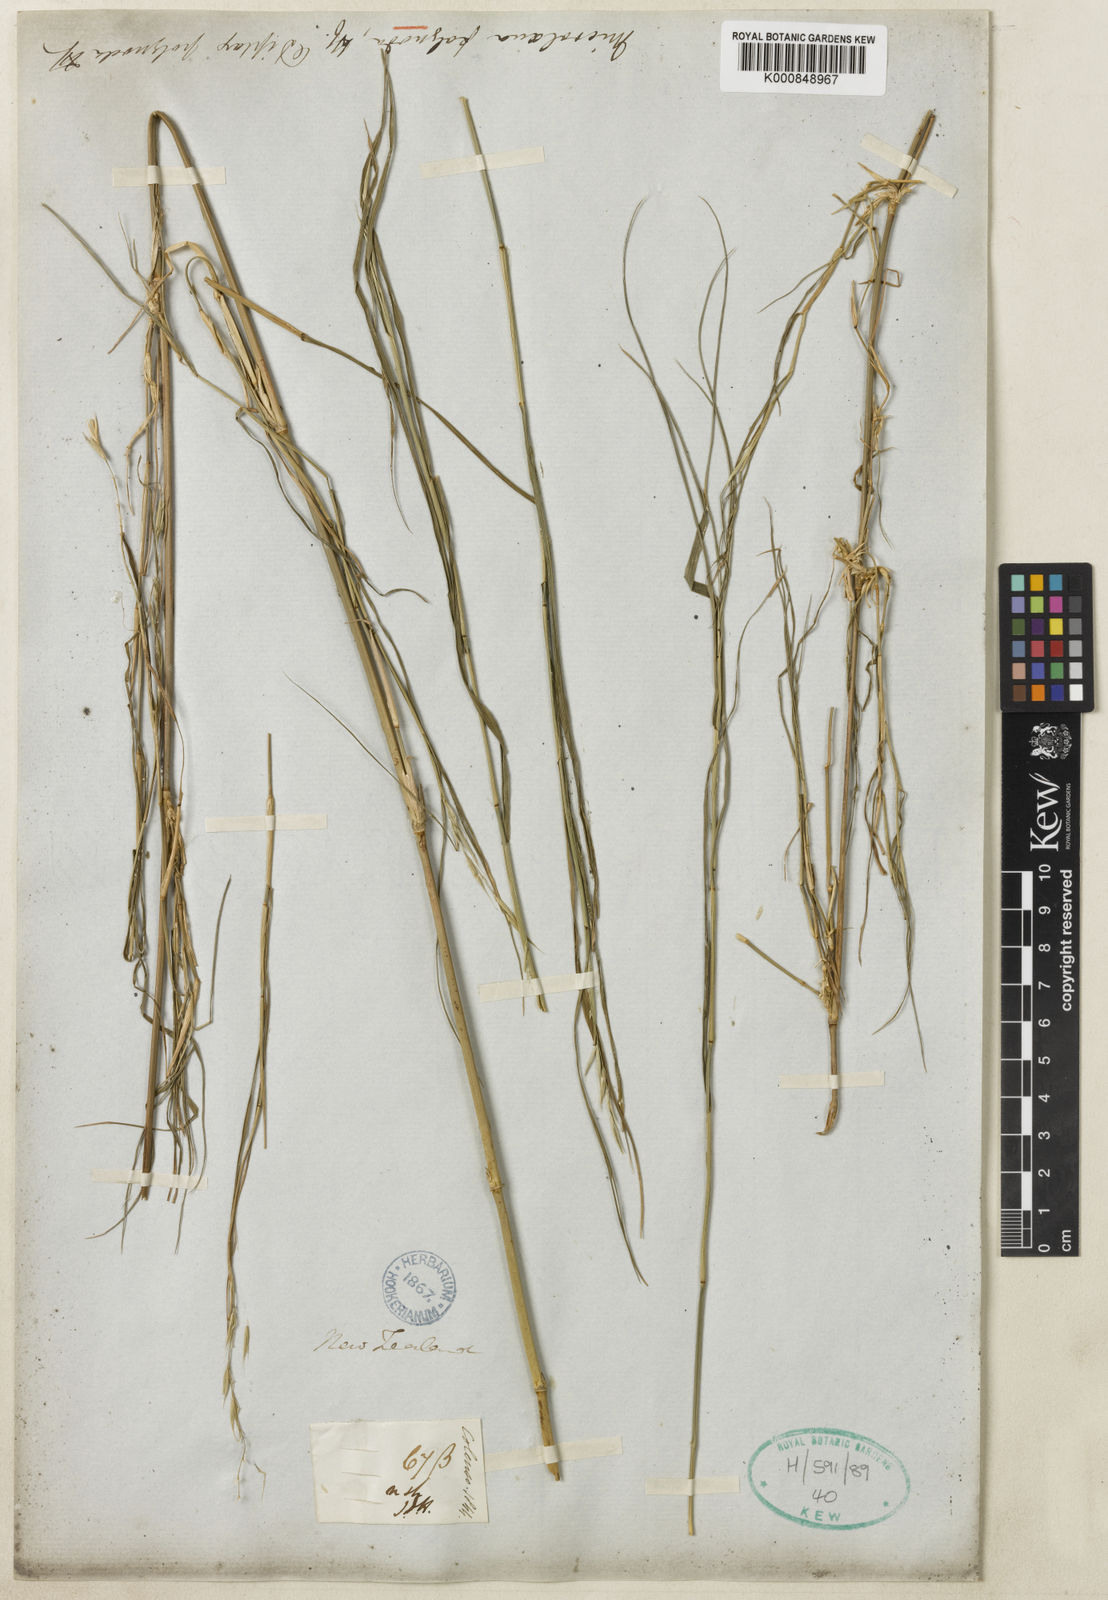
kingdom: Plantae
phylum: Tracheophyta
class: Liliopsida
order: Poales
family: Poaceae
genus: Ehrharta
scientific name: Ehrharta
